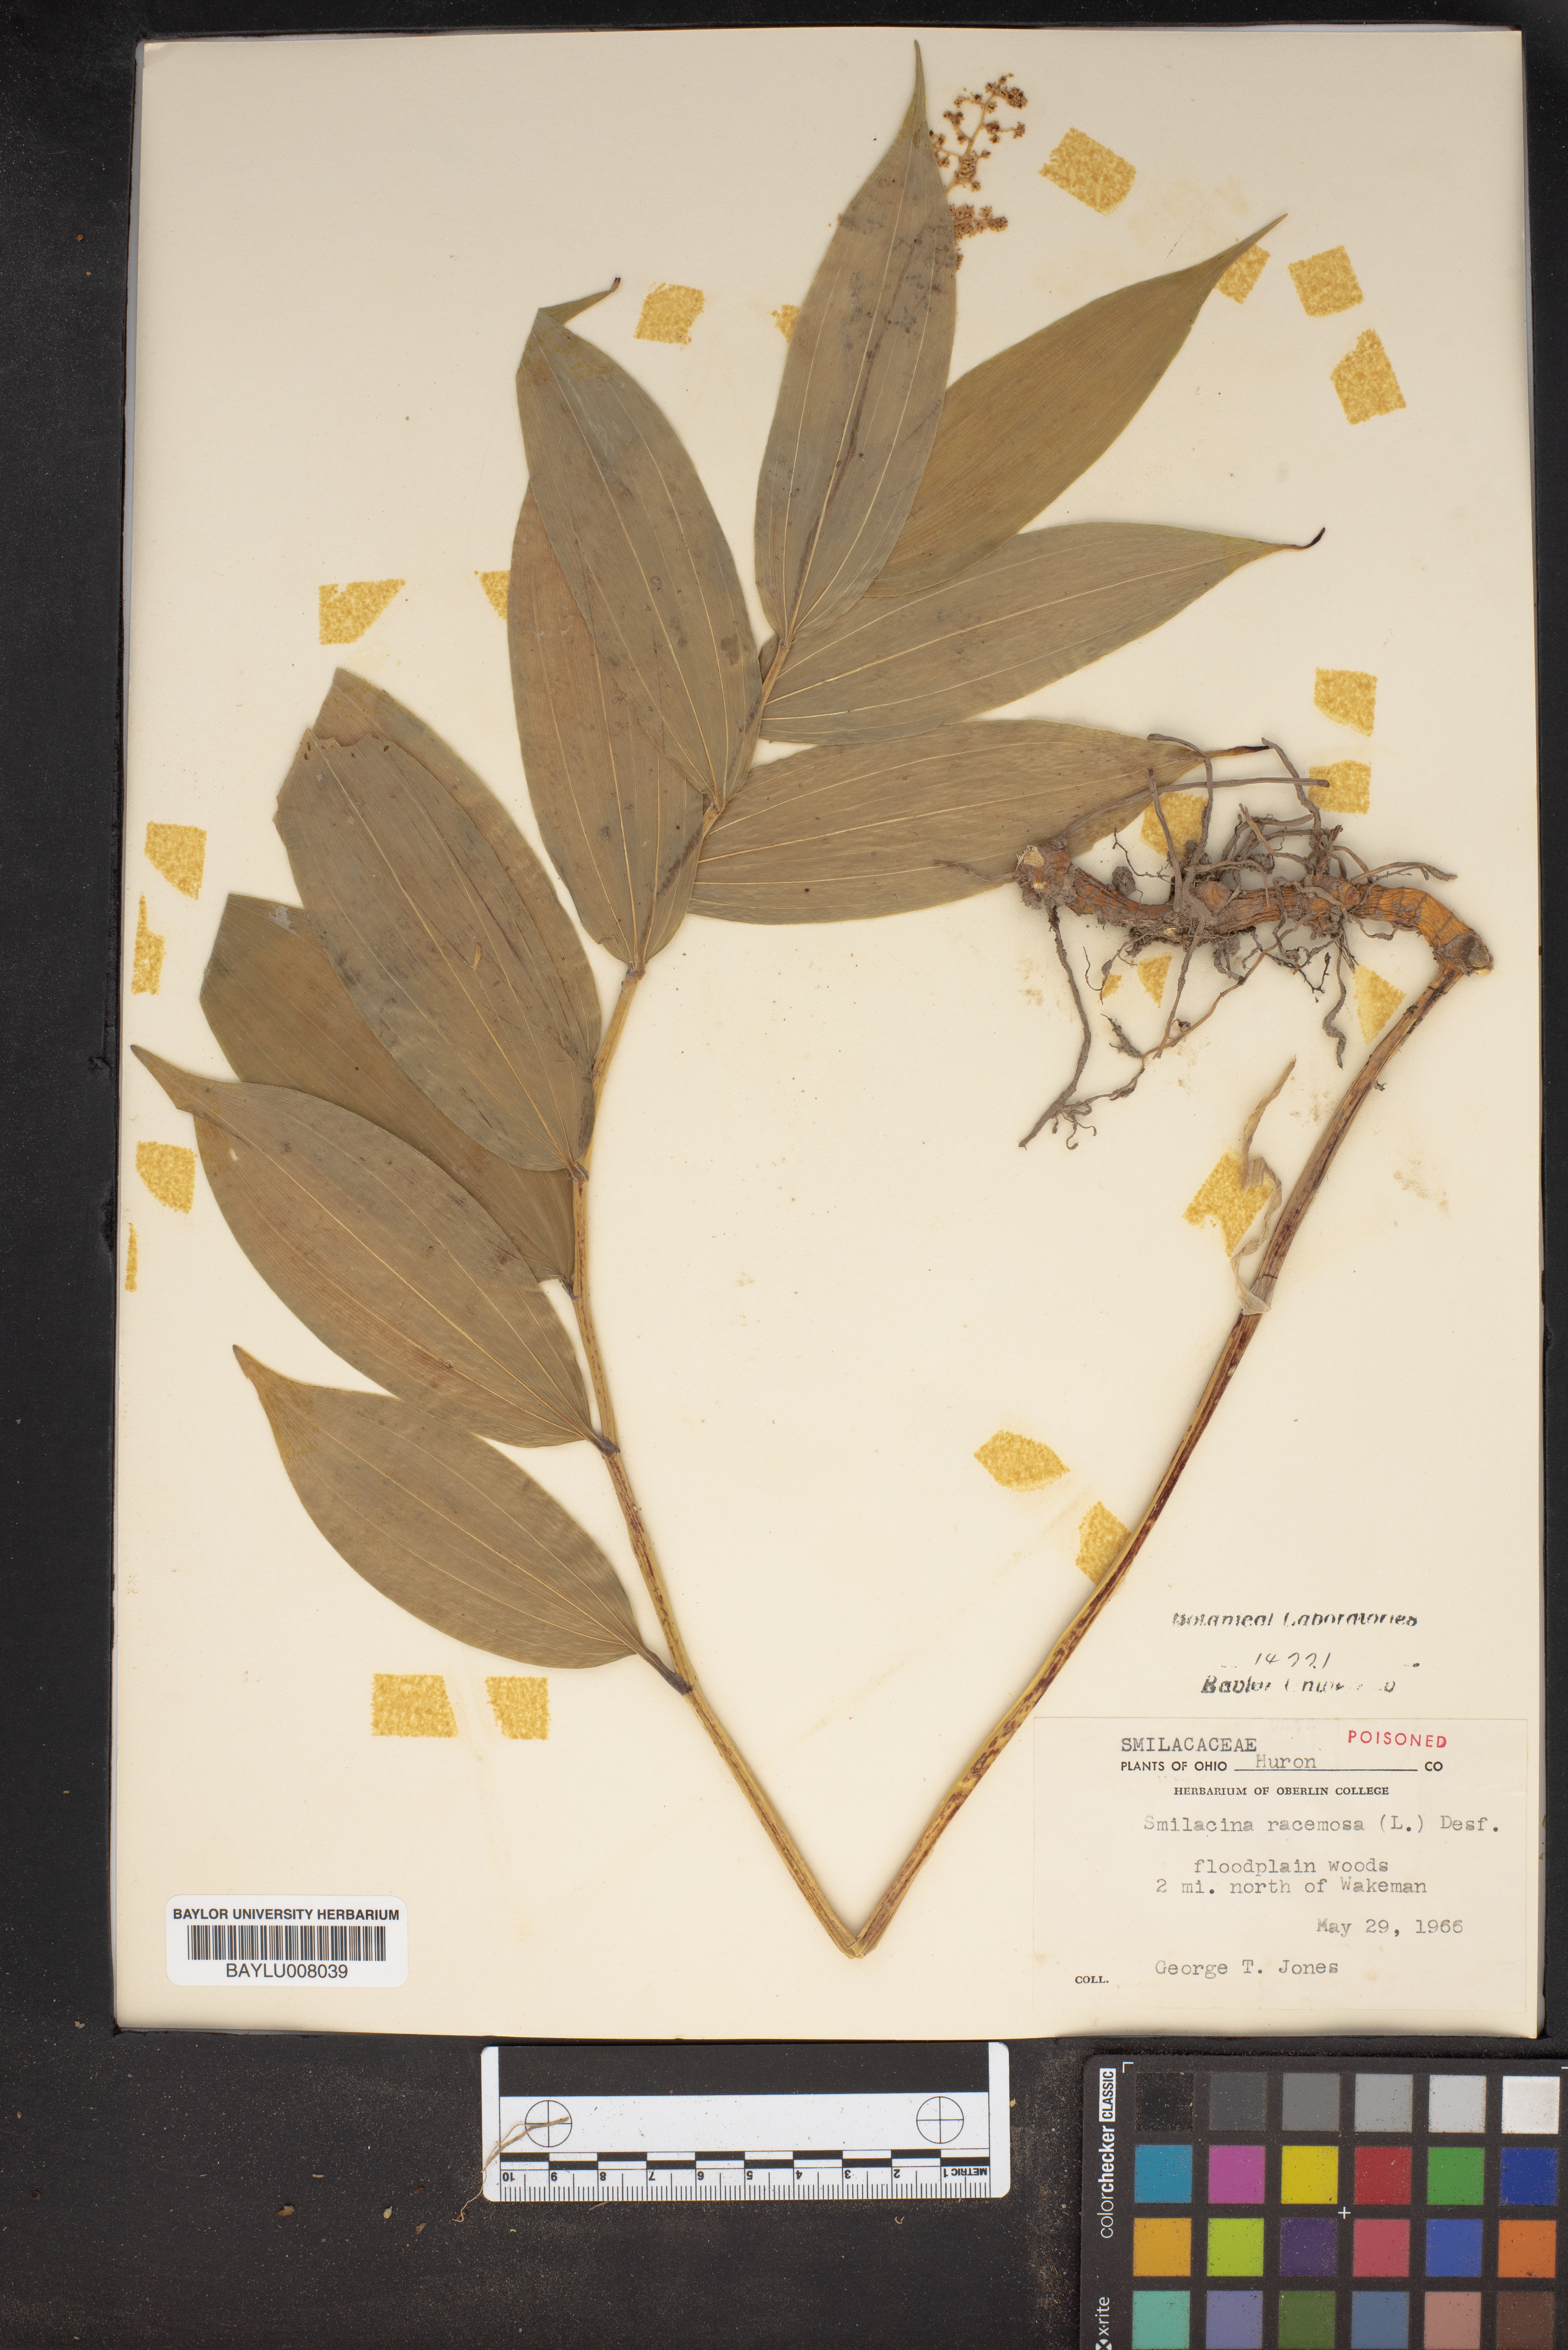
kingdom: Plantae
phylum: Tracheophyta
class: Liliopsida
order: Asparagales
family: Asparagaceae
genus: Maianthemum
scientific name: Maianthemum racemosum
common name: False spikenard
